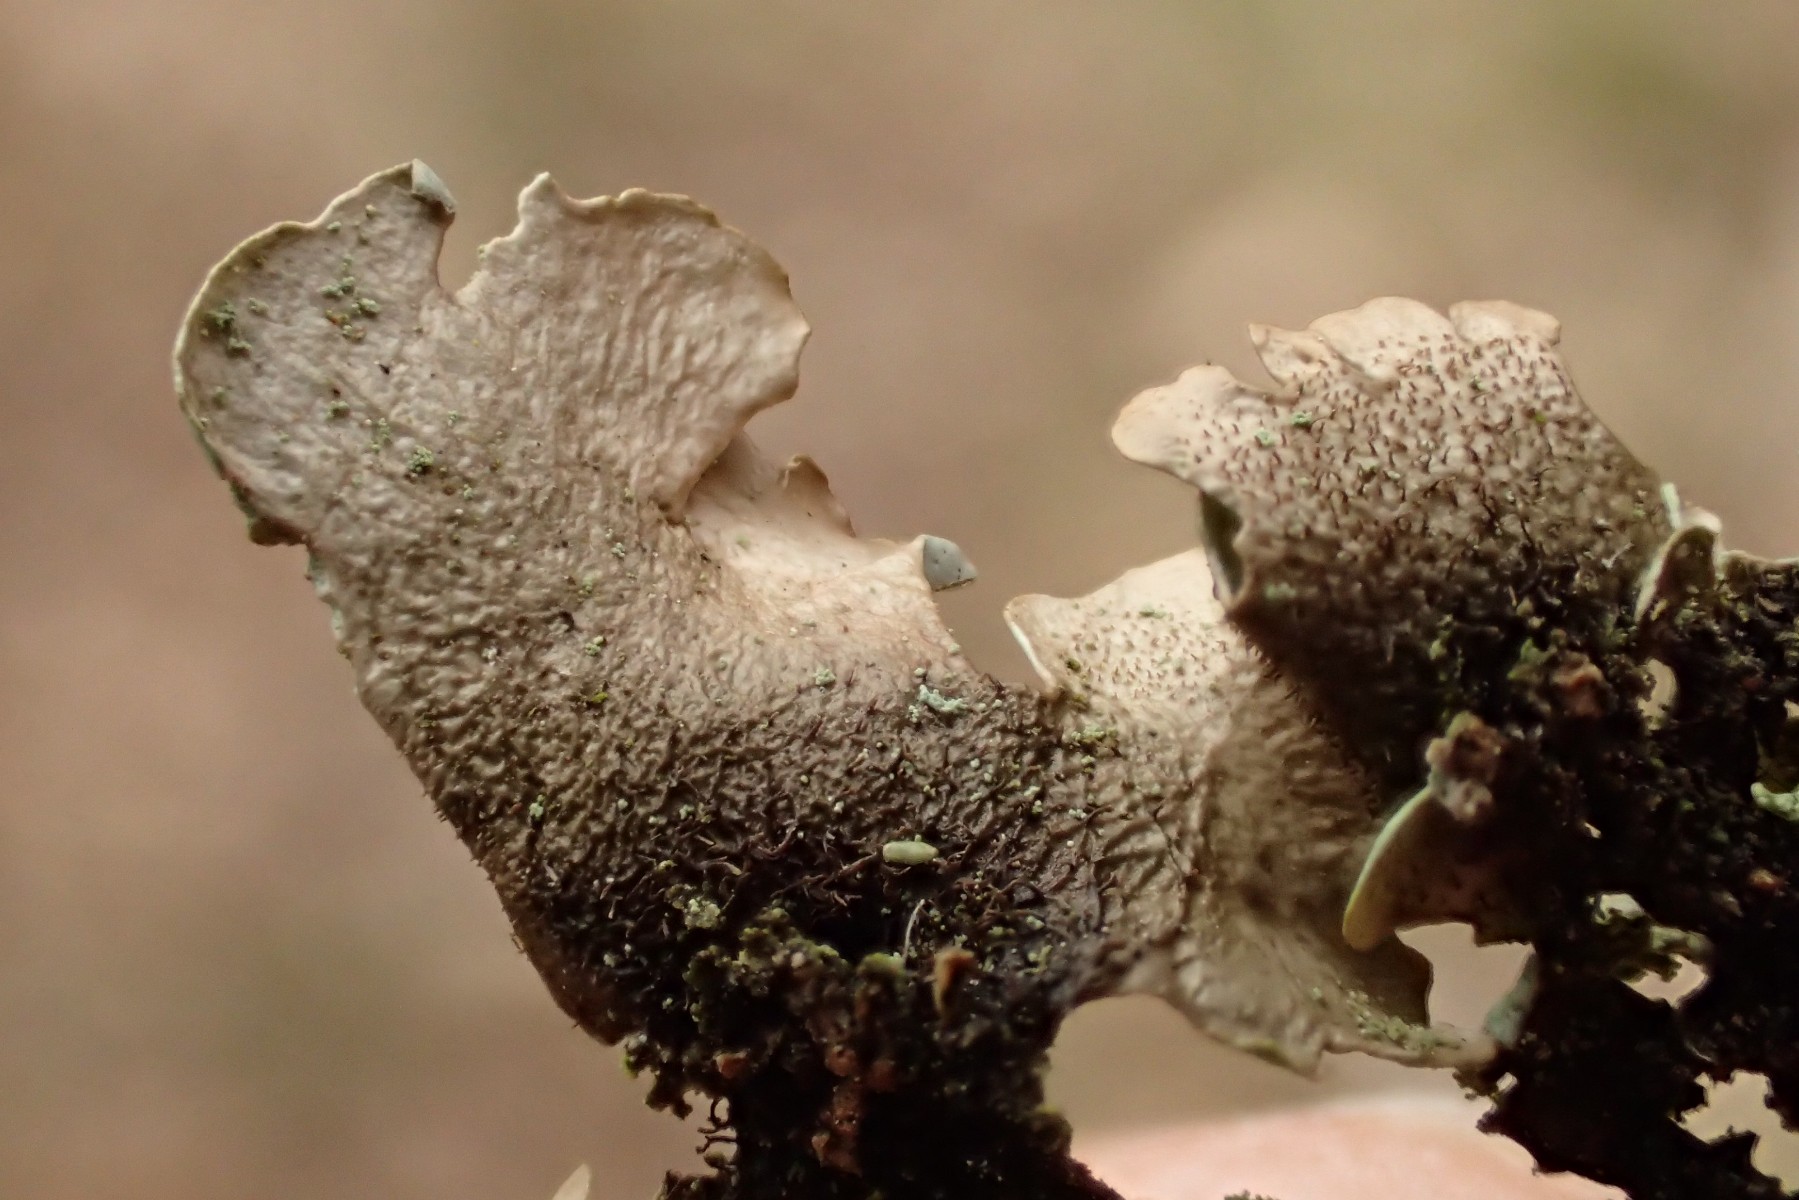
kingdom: Fungi
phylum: Ascomycota
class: Lecanoromycetes
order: Lecanorales
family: Parmeliaceae
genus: Hypotrachyna
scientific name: Hypotrachyna revoluta
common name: bleggrå skållav
